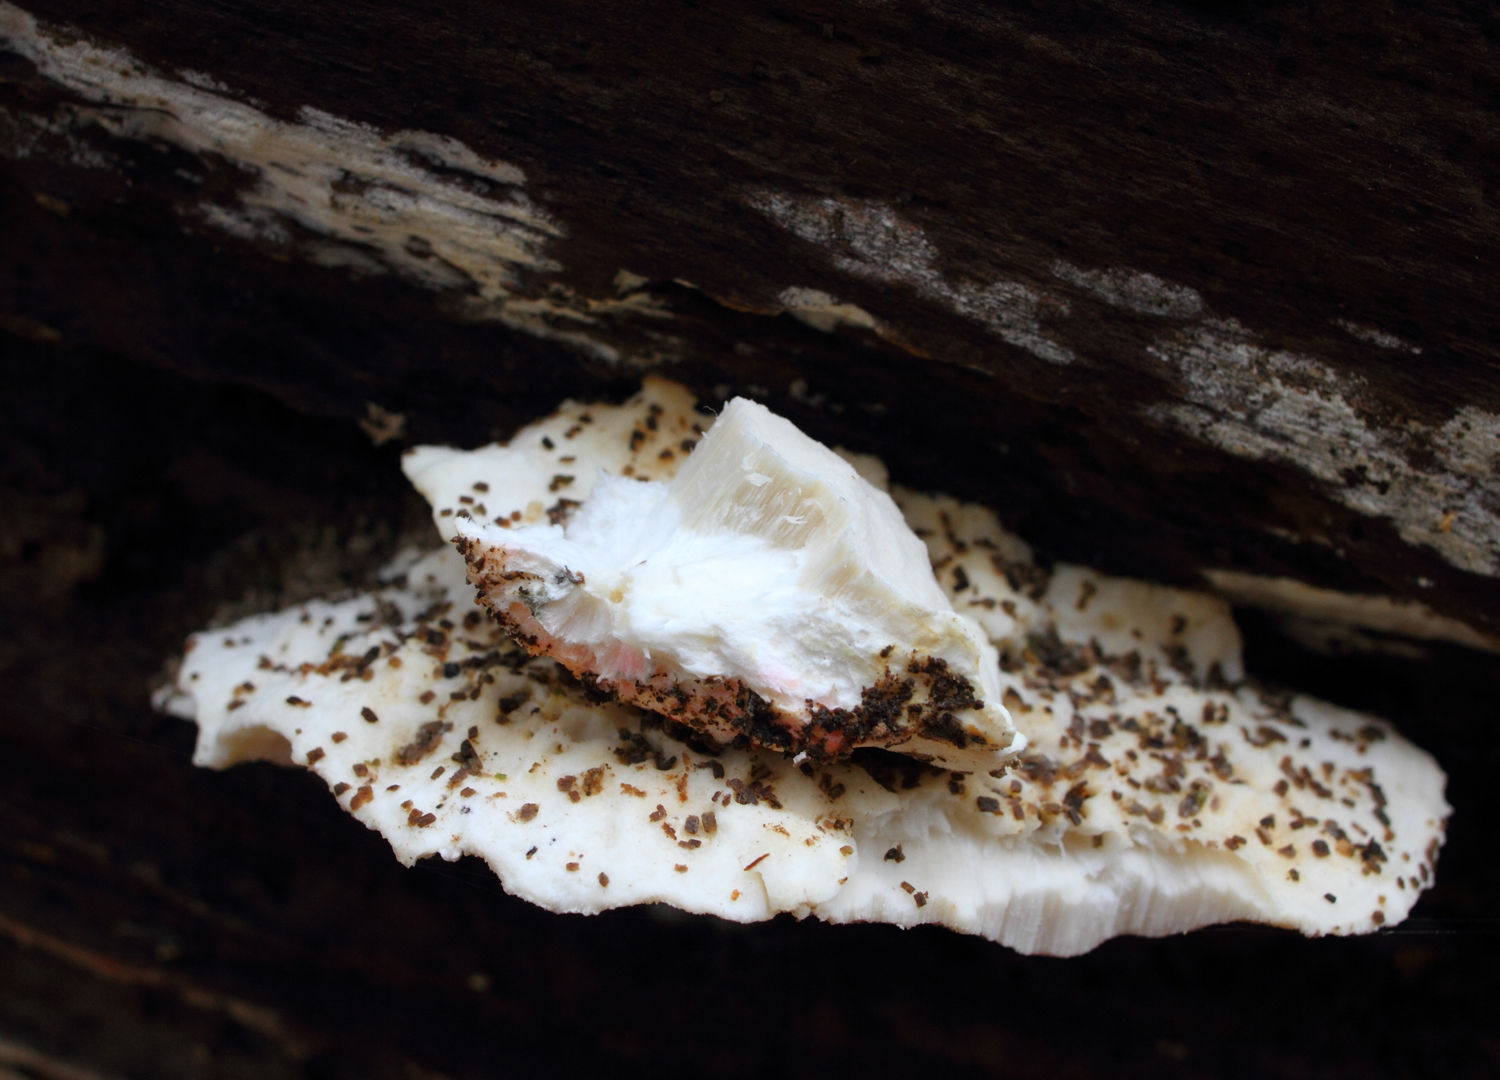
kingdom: Fungi
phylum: Basidiomycota
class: Agaricomycetes
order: Polyporales
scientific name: Polyporales
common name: poresvampordenen
